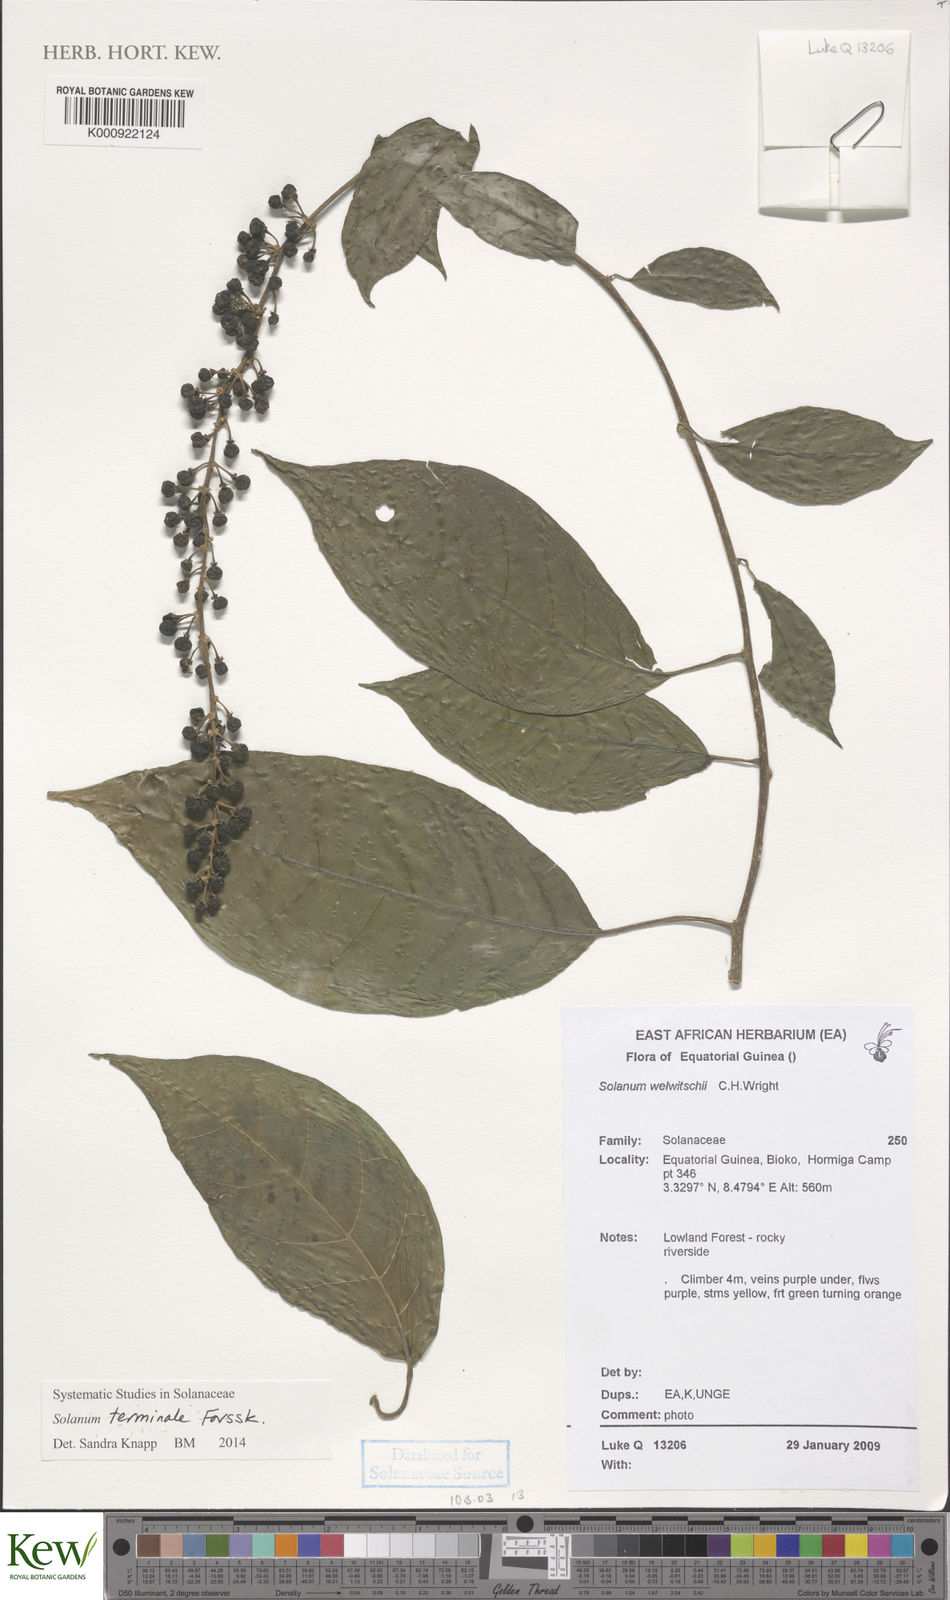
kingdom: Plantae
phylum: Tracheophyta
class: Magnoliopsida
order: Solanales
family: Solanaceae
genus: Solanum
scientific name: Solanum terminale
